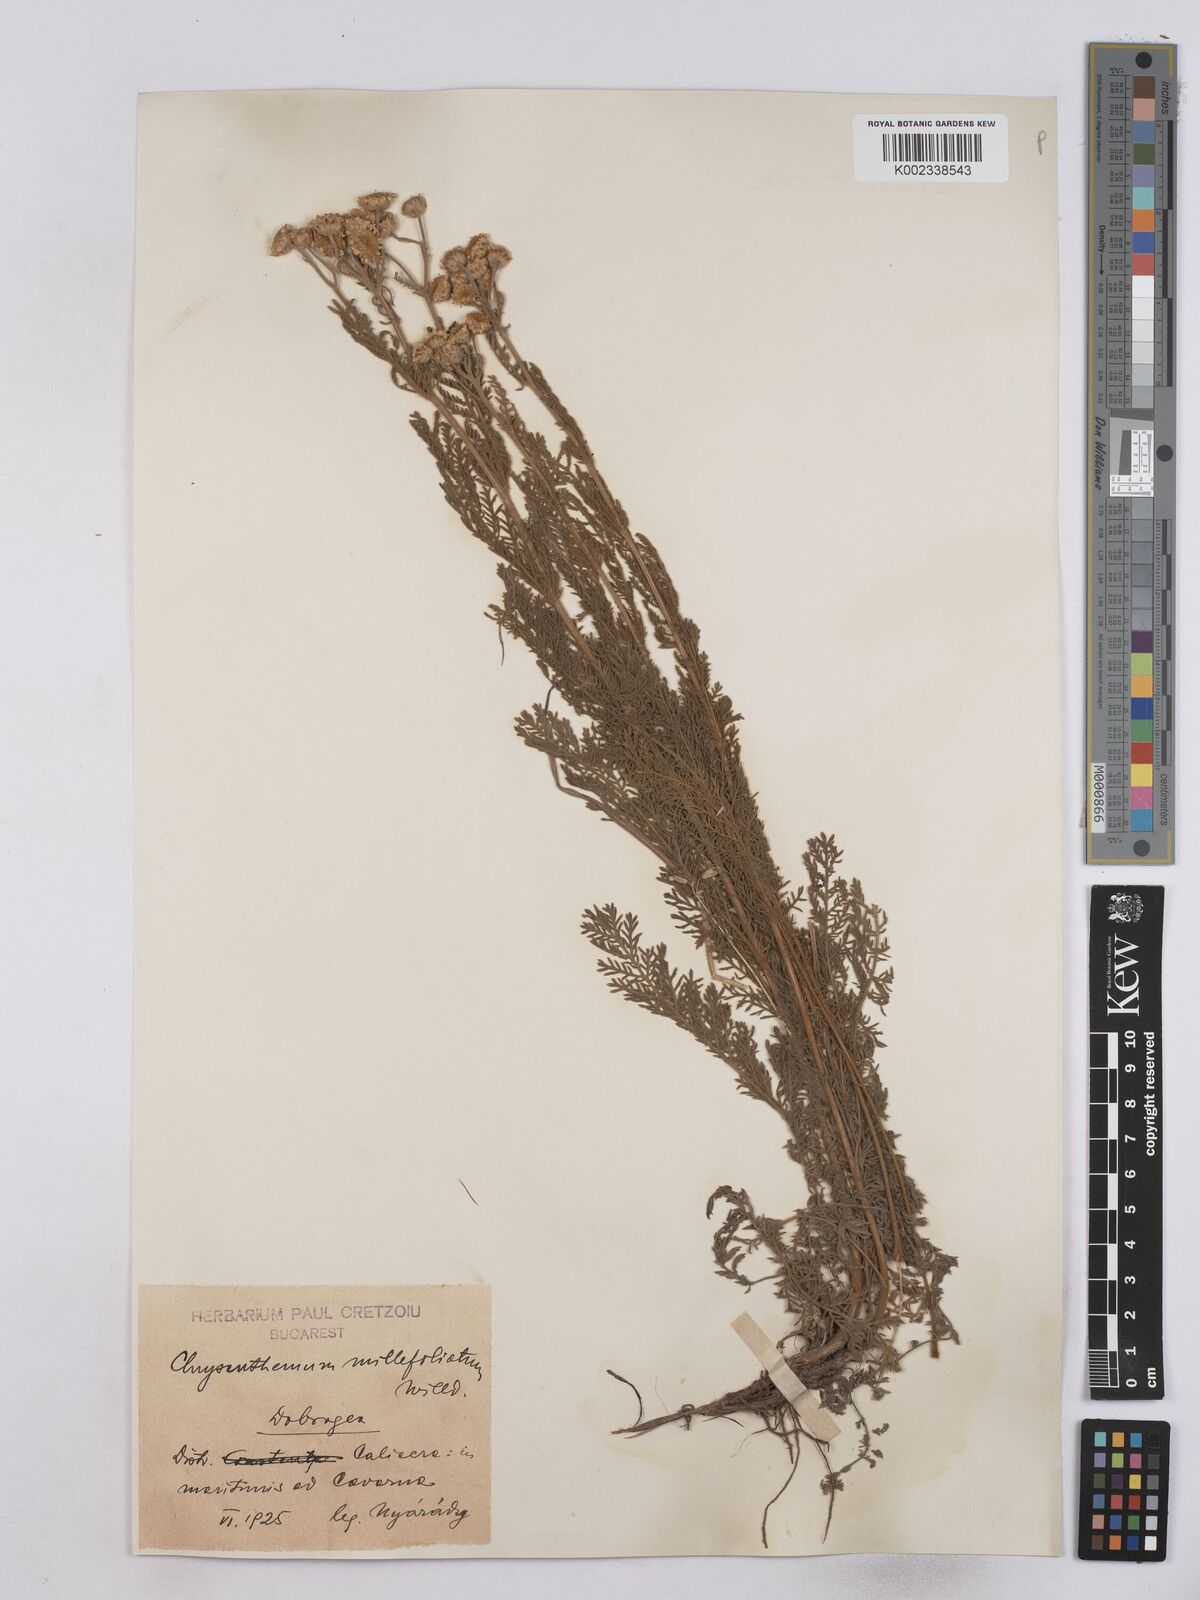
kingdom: Plantae
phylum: Tracheophyta
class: Magnoliopsida
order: Asterales
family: Asteraceae
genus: Tanacetum
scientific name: Tanacetum millefolium
